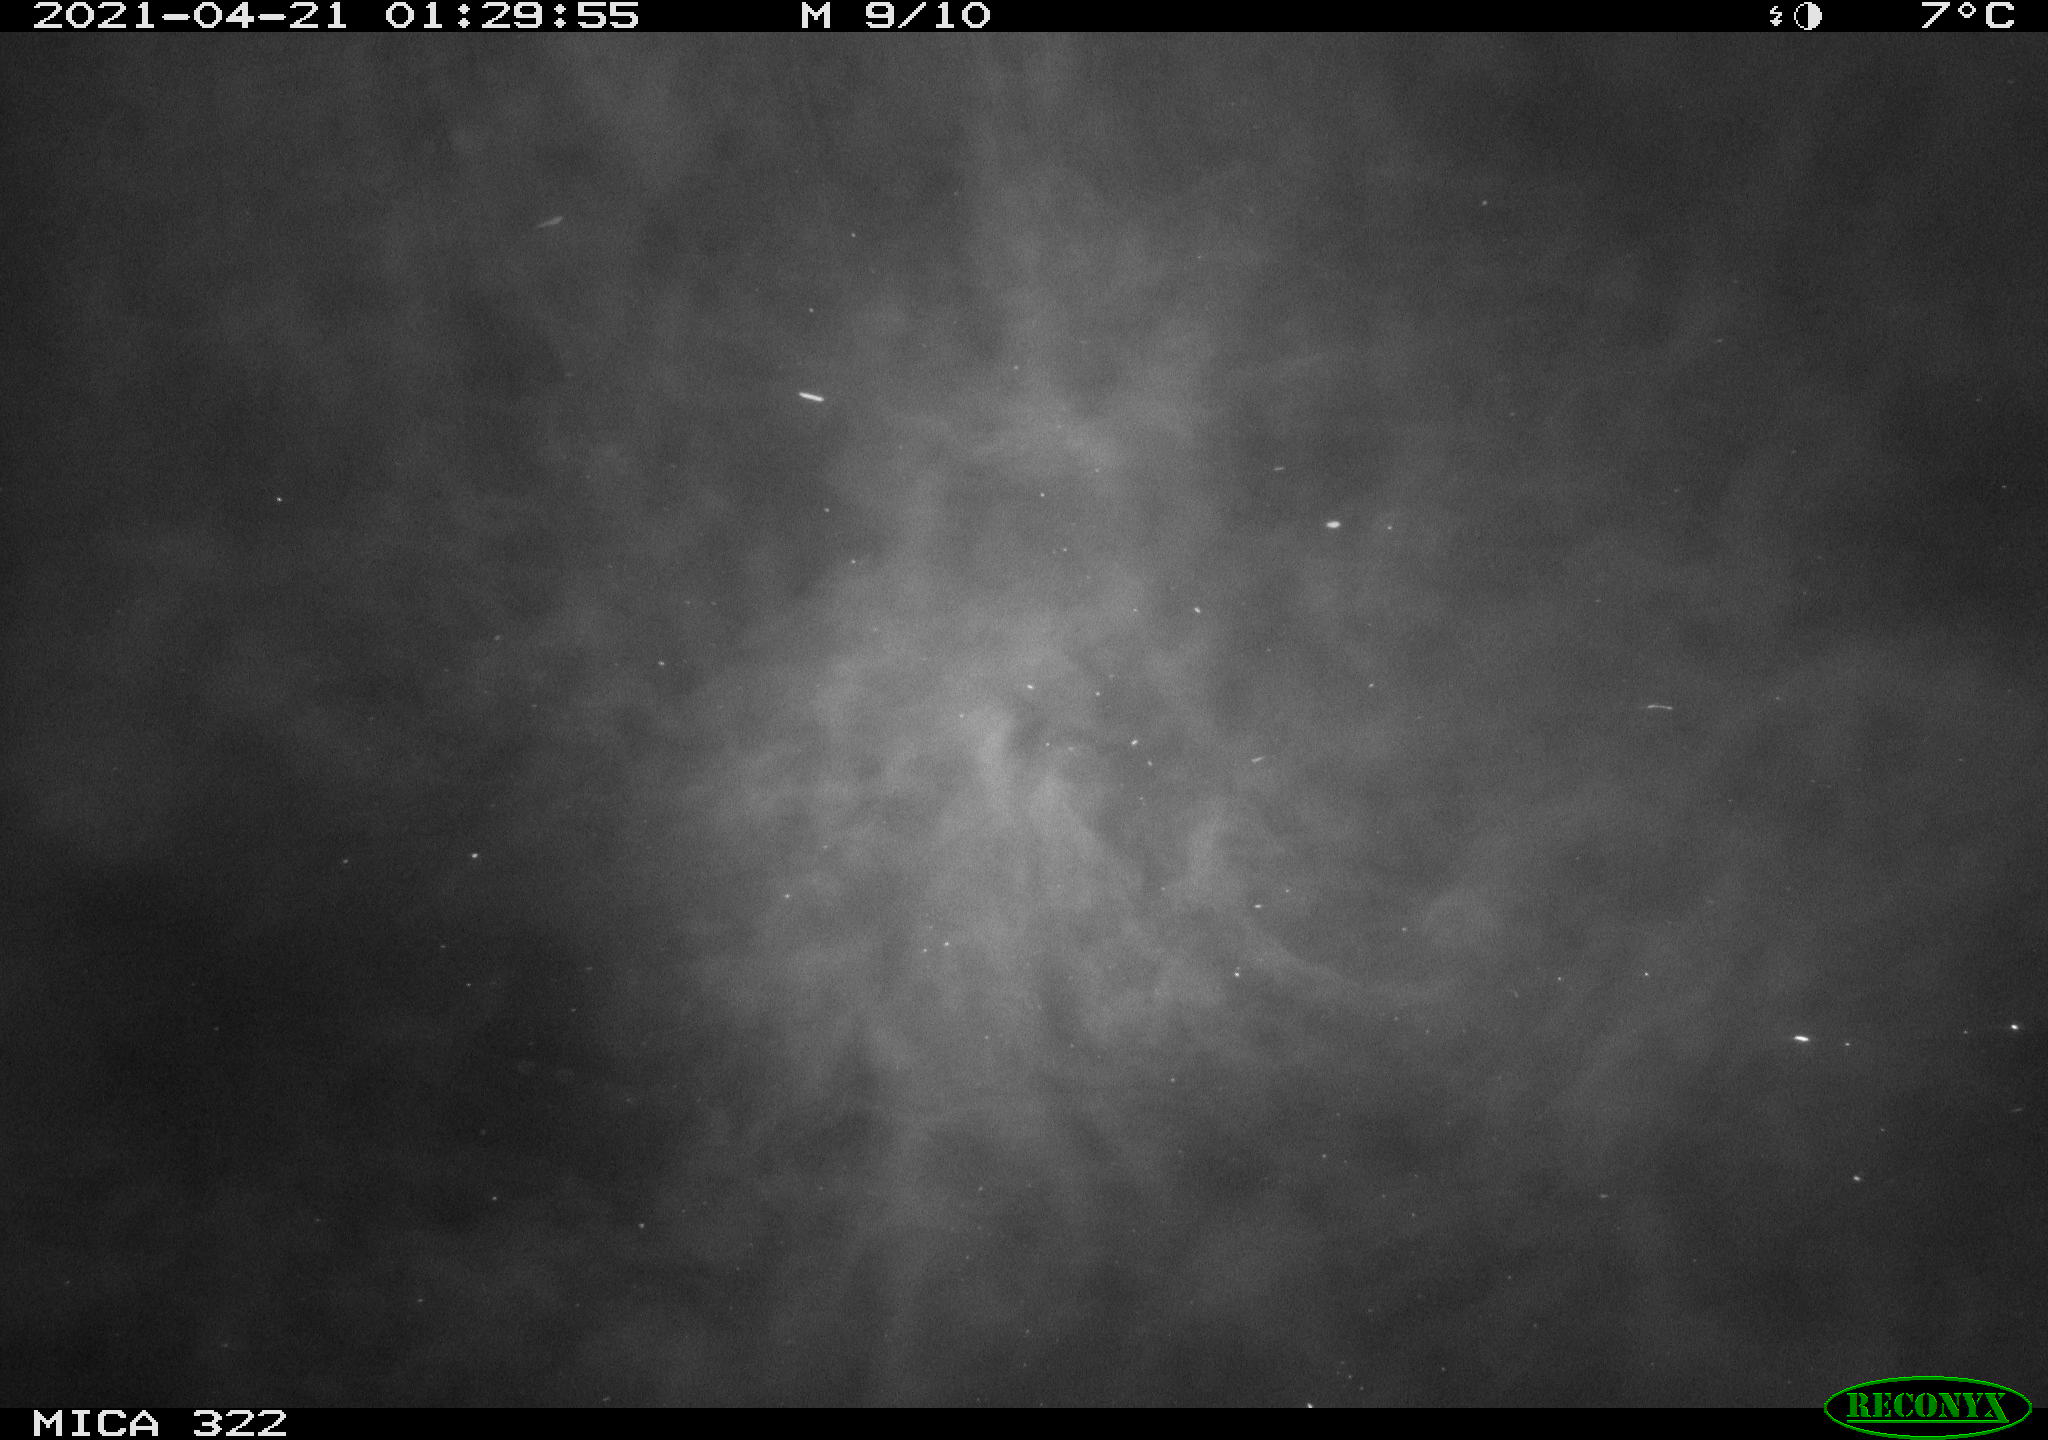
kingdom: Animalia
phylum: Chordata
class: Aves
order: Anseriformes
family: Anatidae
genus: Anas
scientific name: Anas platyrhynchos
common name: Mallard
